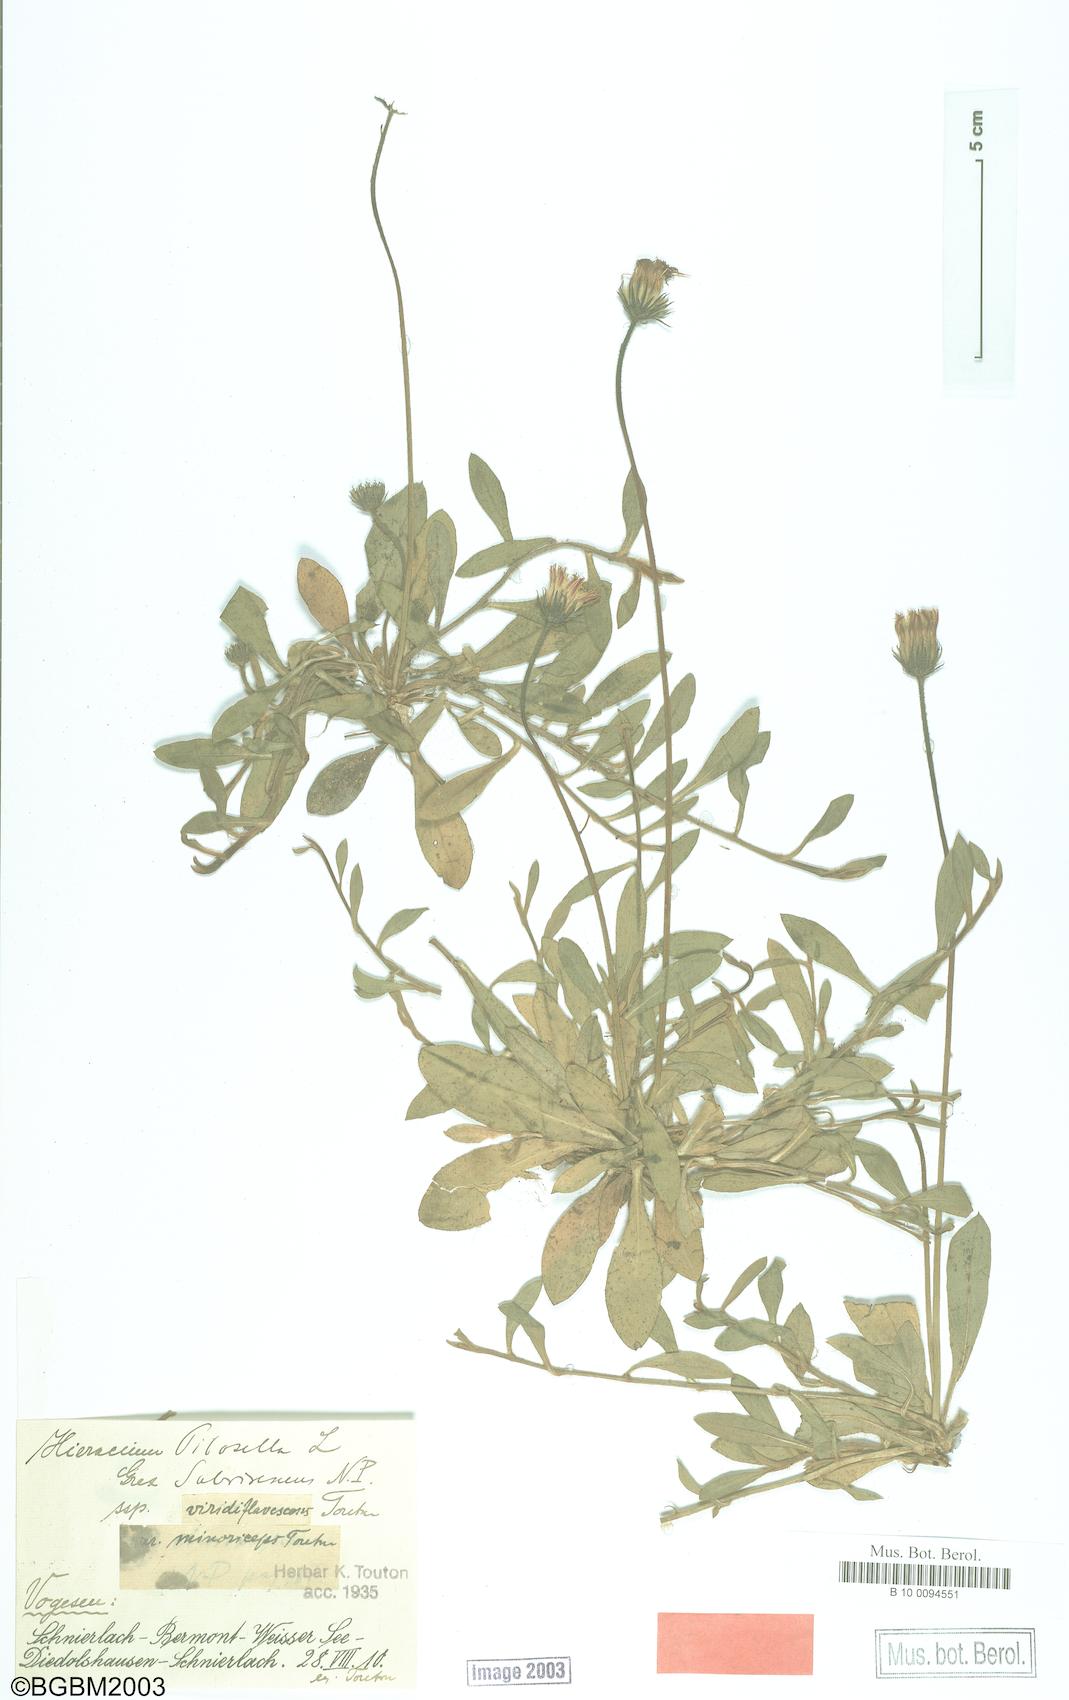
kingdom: Plantae
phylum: Tracheophyta
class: Magnoliopsida
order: Asterales
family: Asteraceae
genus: Pilosella
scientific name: Pilosella officinarum
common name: Mouse-ear hawkweed
